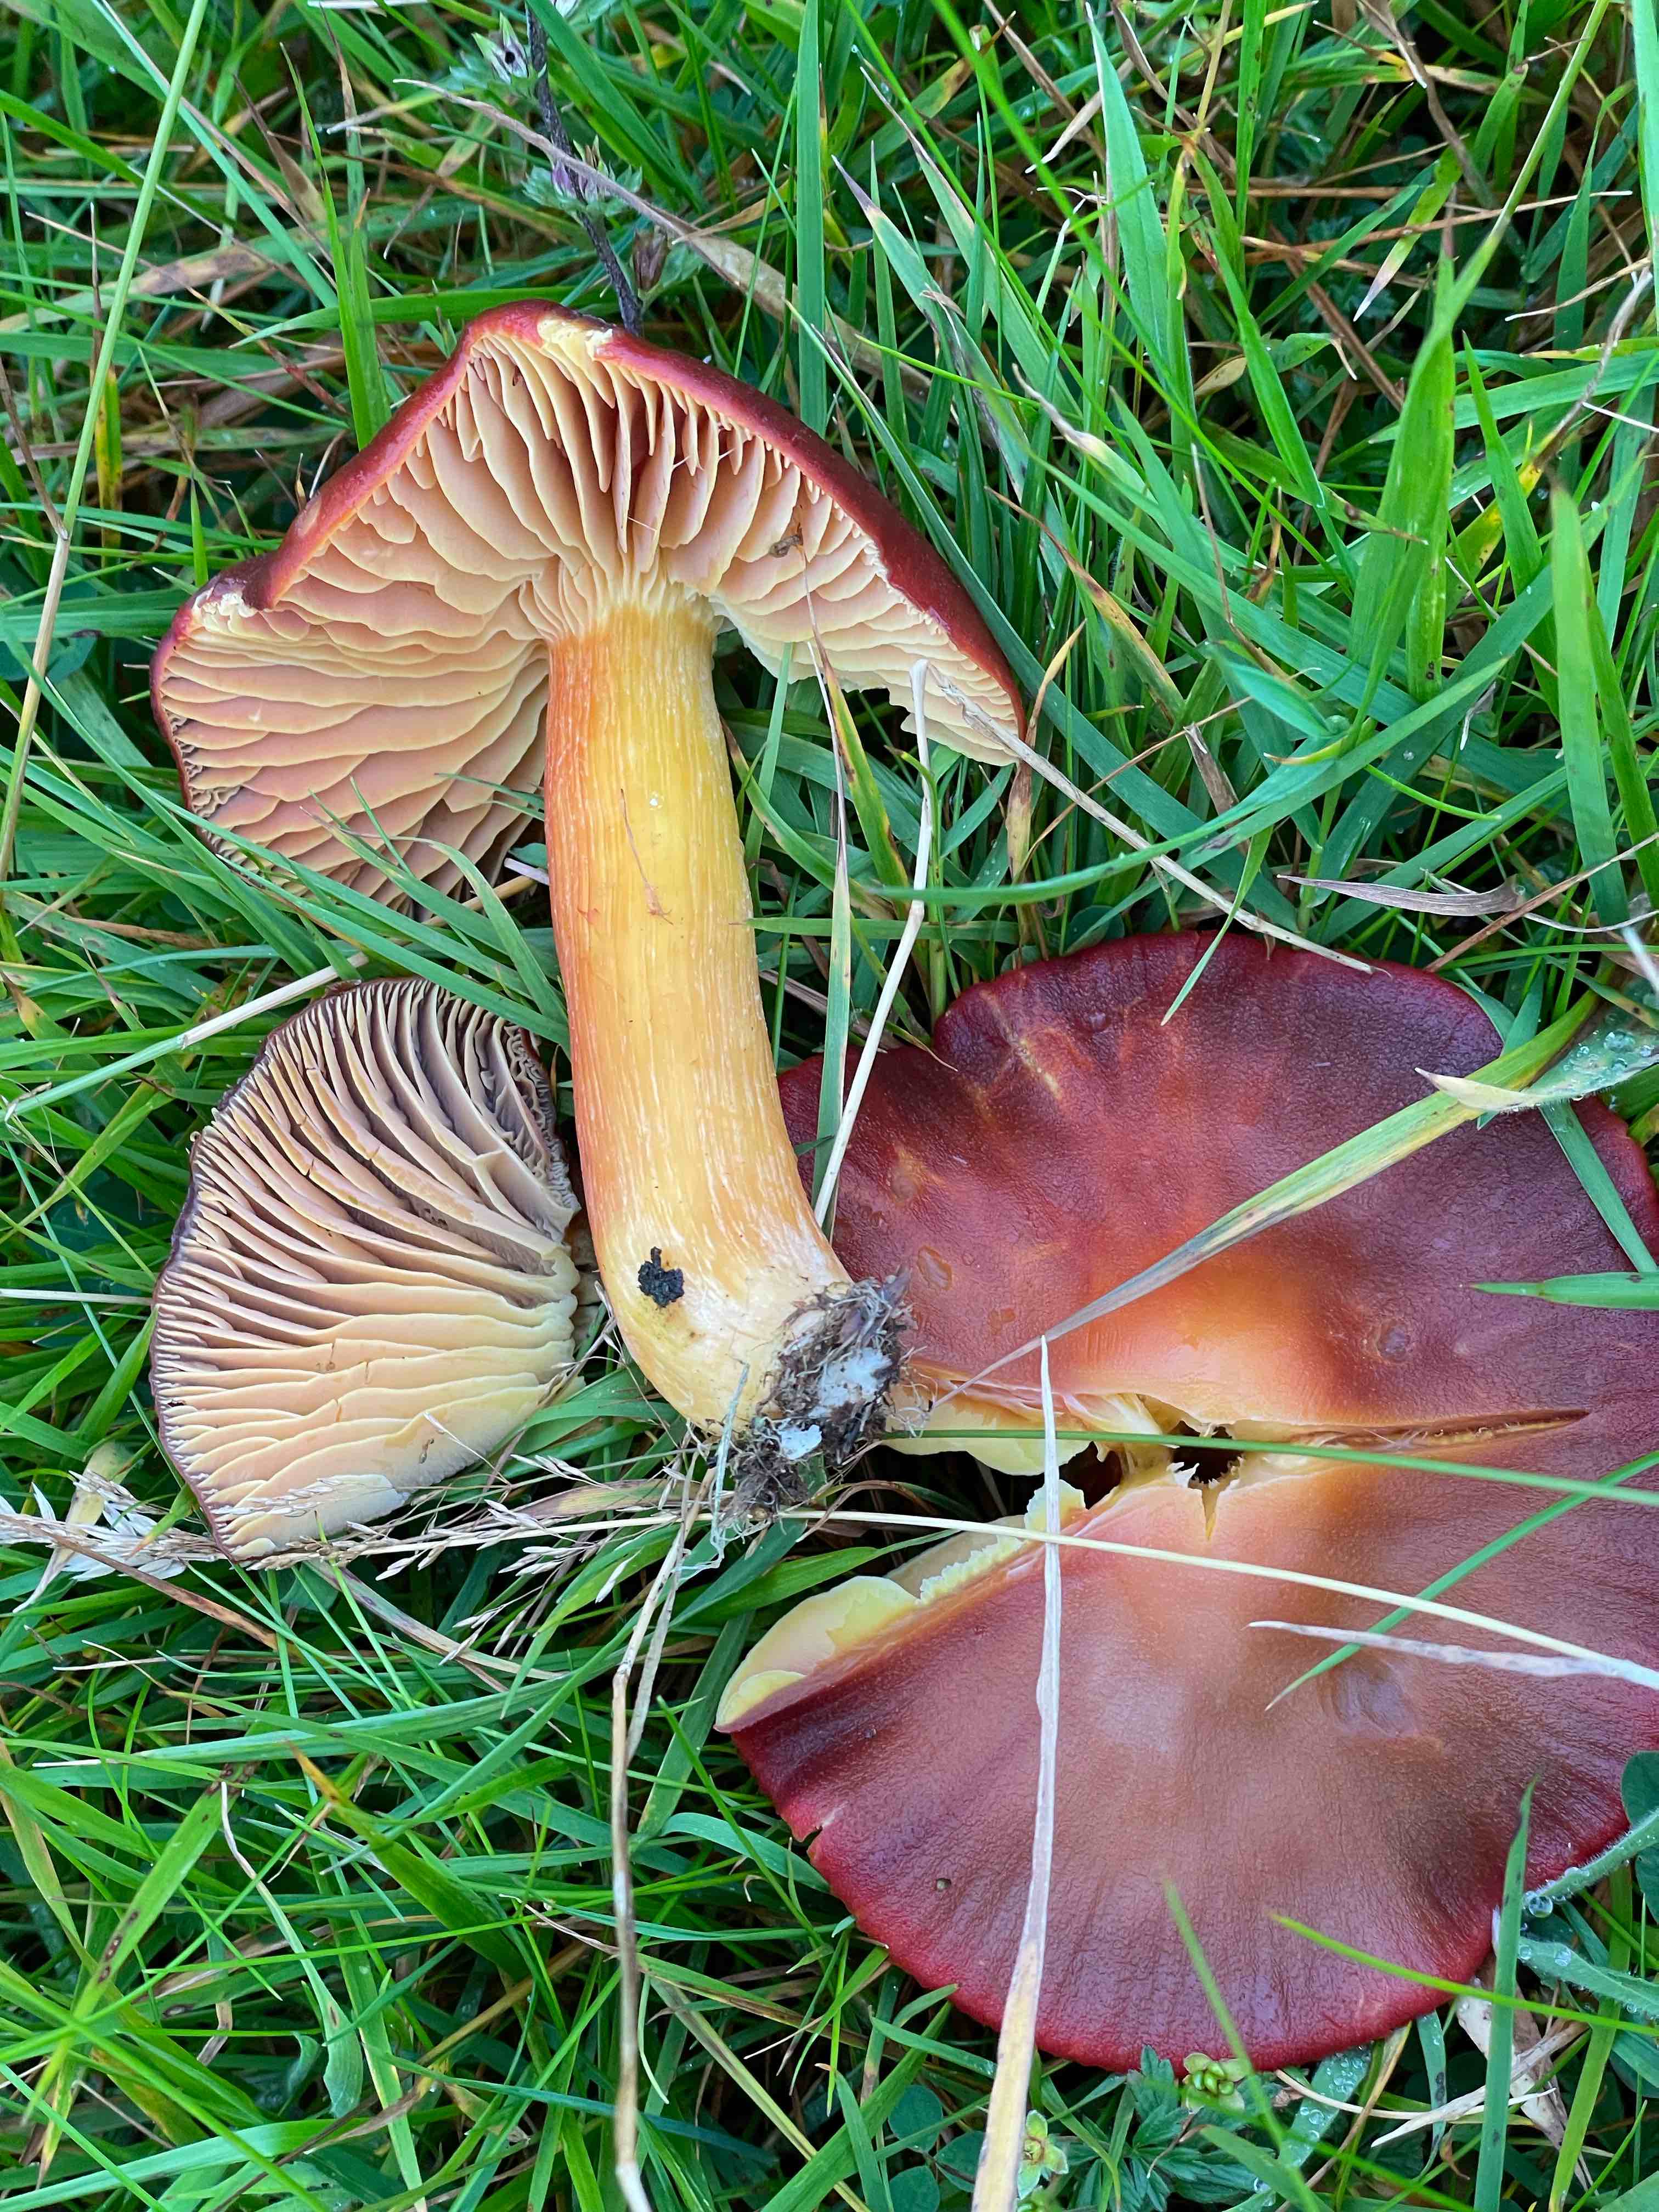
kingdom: Fungi
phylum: Basidiomycota
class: Agaricomycetes
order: Agaricales
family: Hygrophoraceae
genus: Hygrocybe
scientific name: Hygrocybe punicea
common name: skarlagen-vokshat
